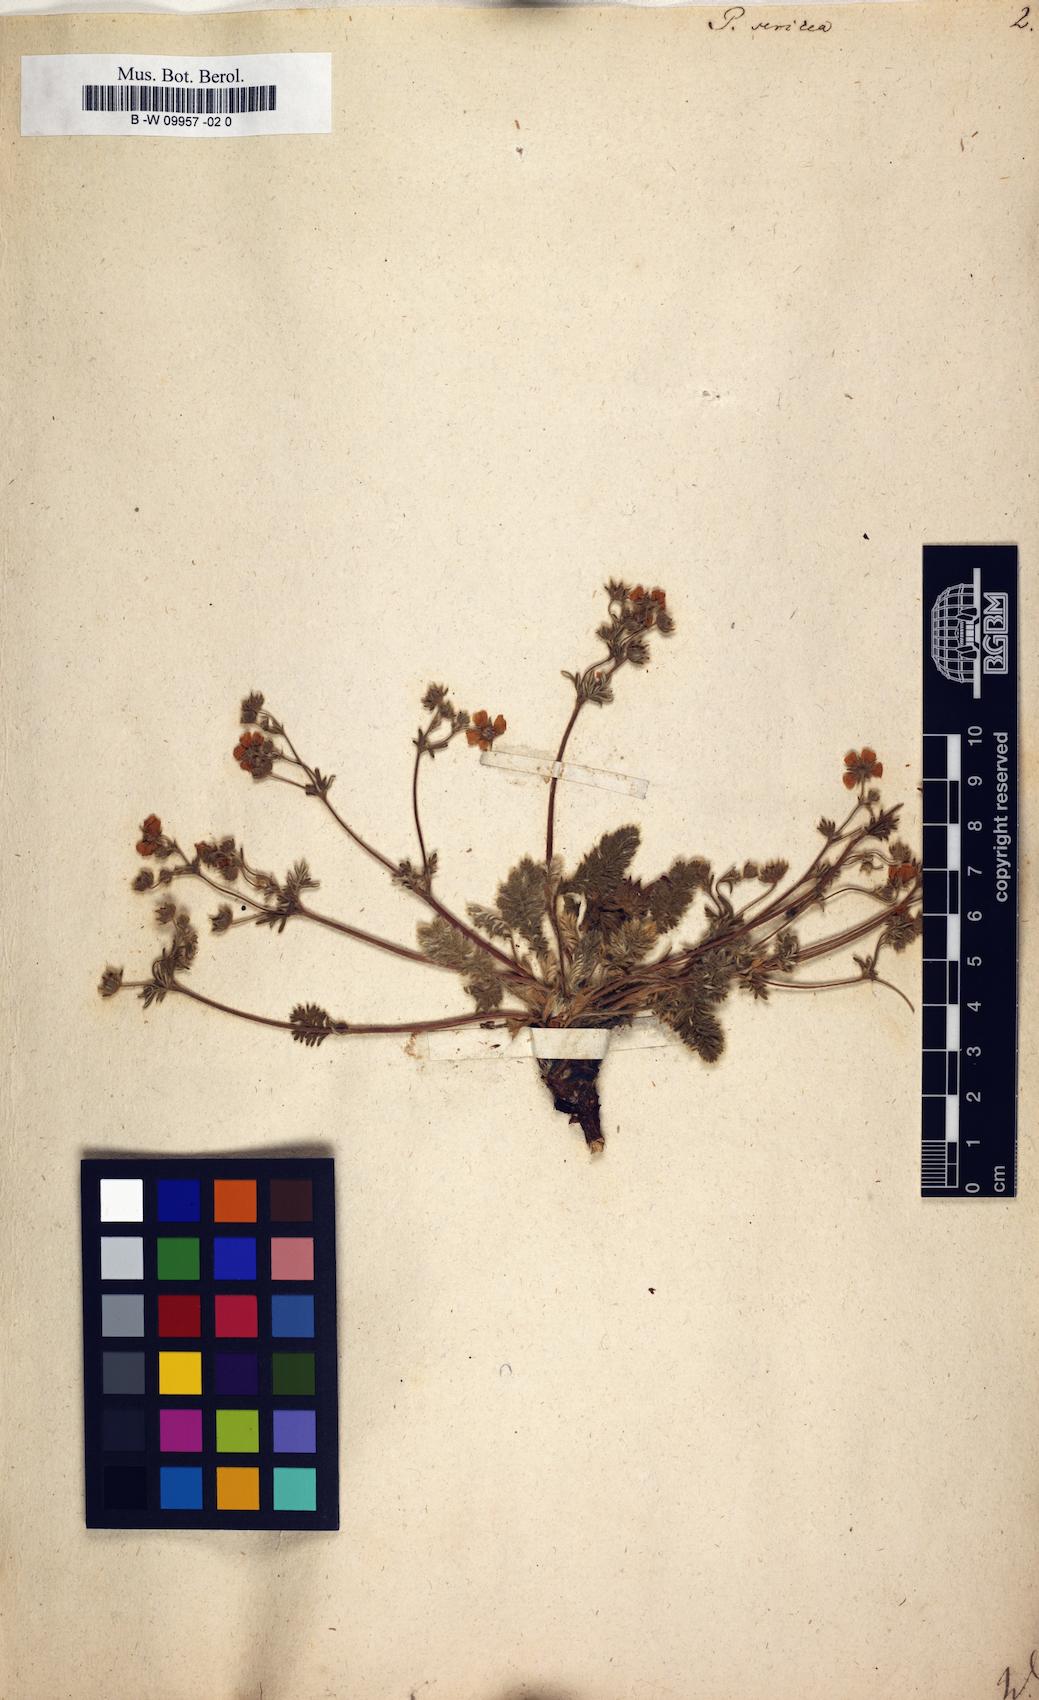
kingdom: Plantae
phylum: Tracheophyta
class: Magnoliopsida
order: Rosales
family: Rosaceae
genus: Potentilla
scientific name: Potentilla sericea
